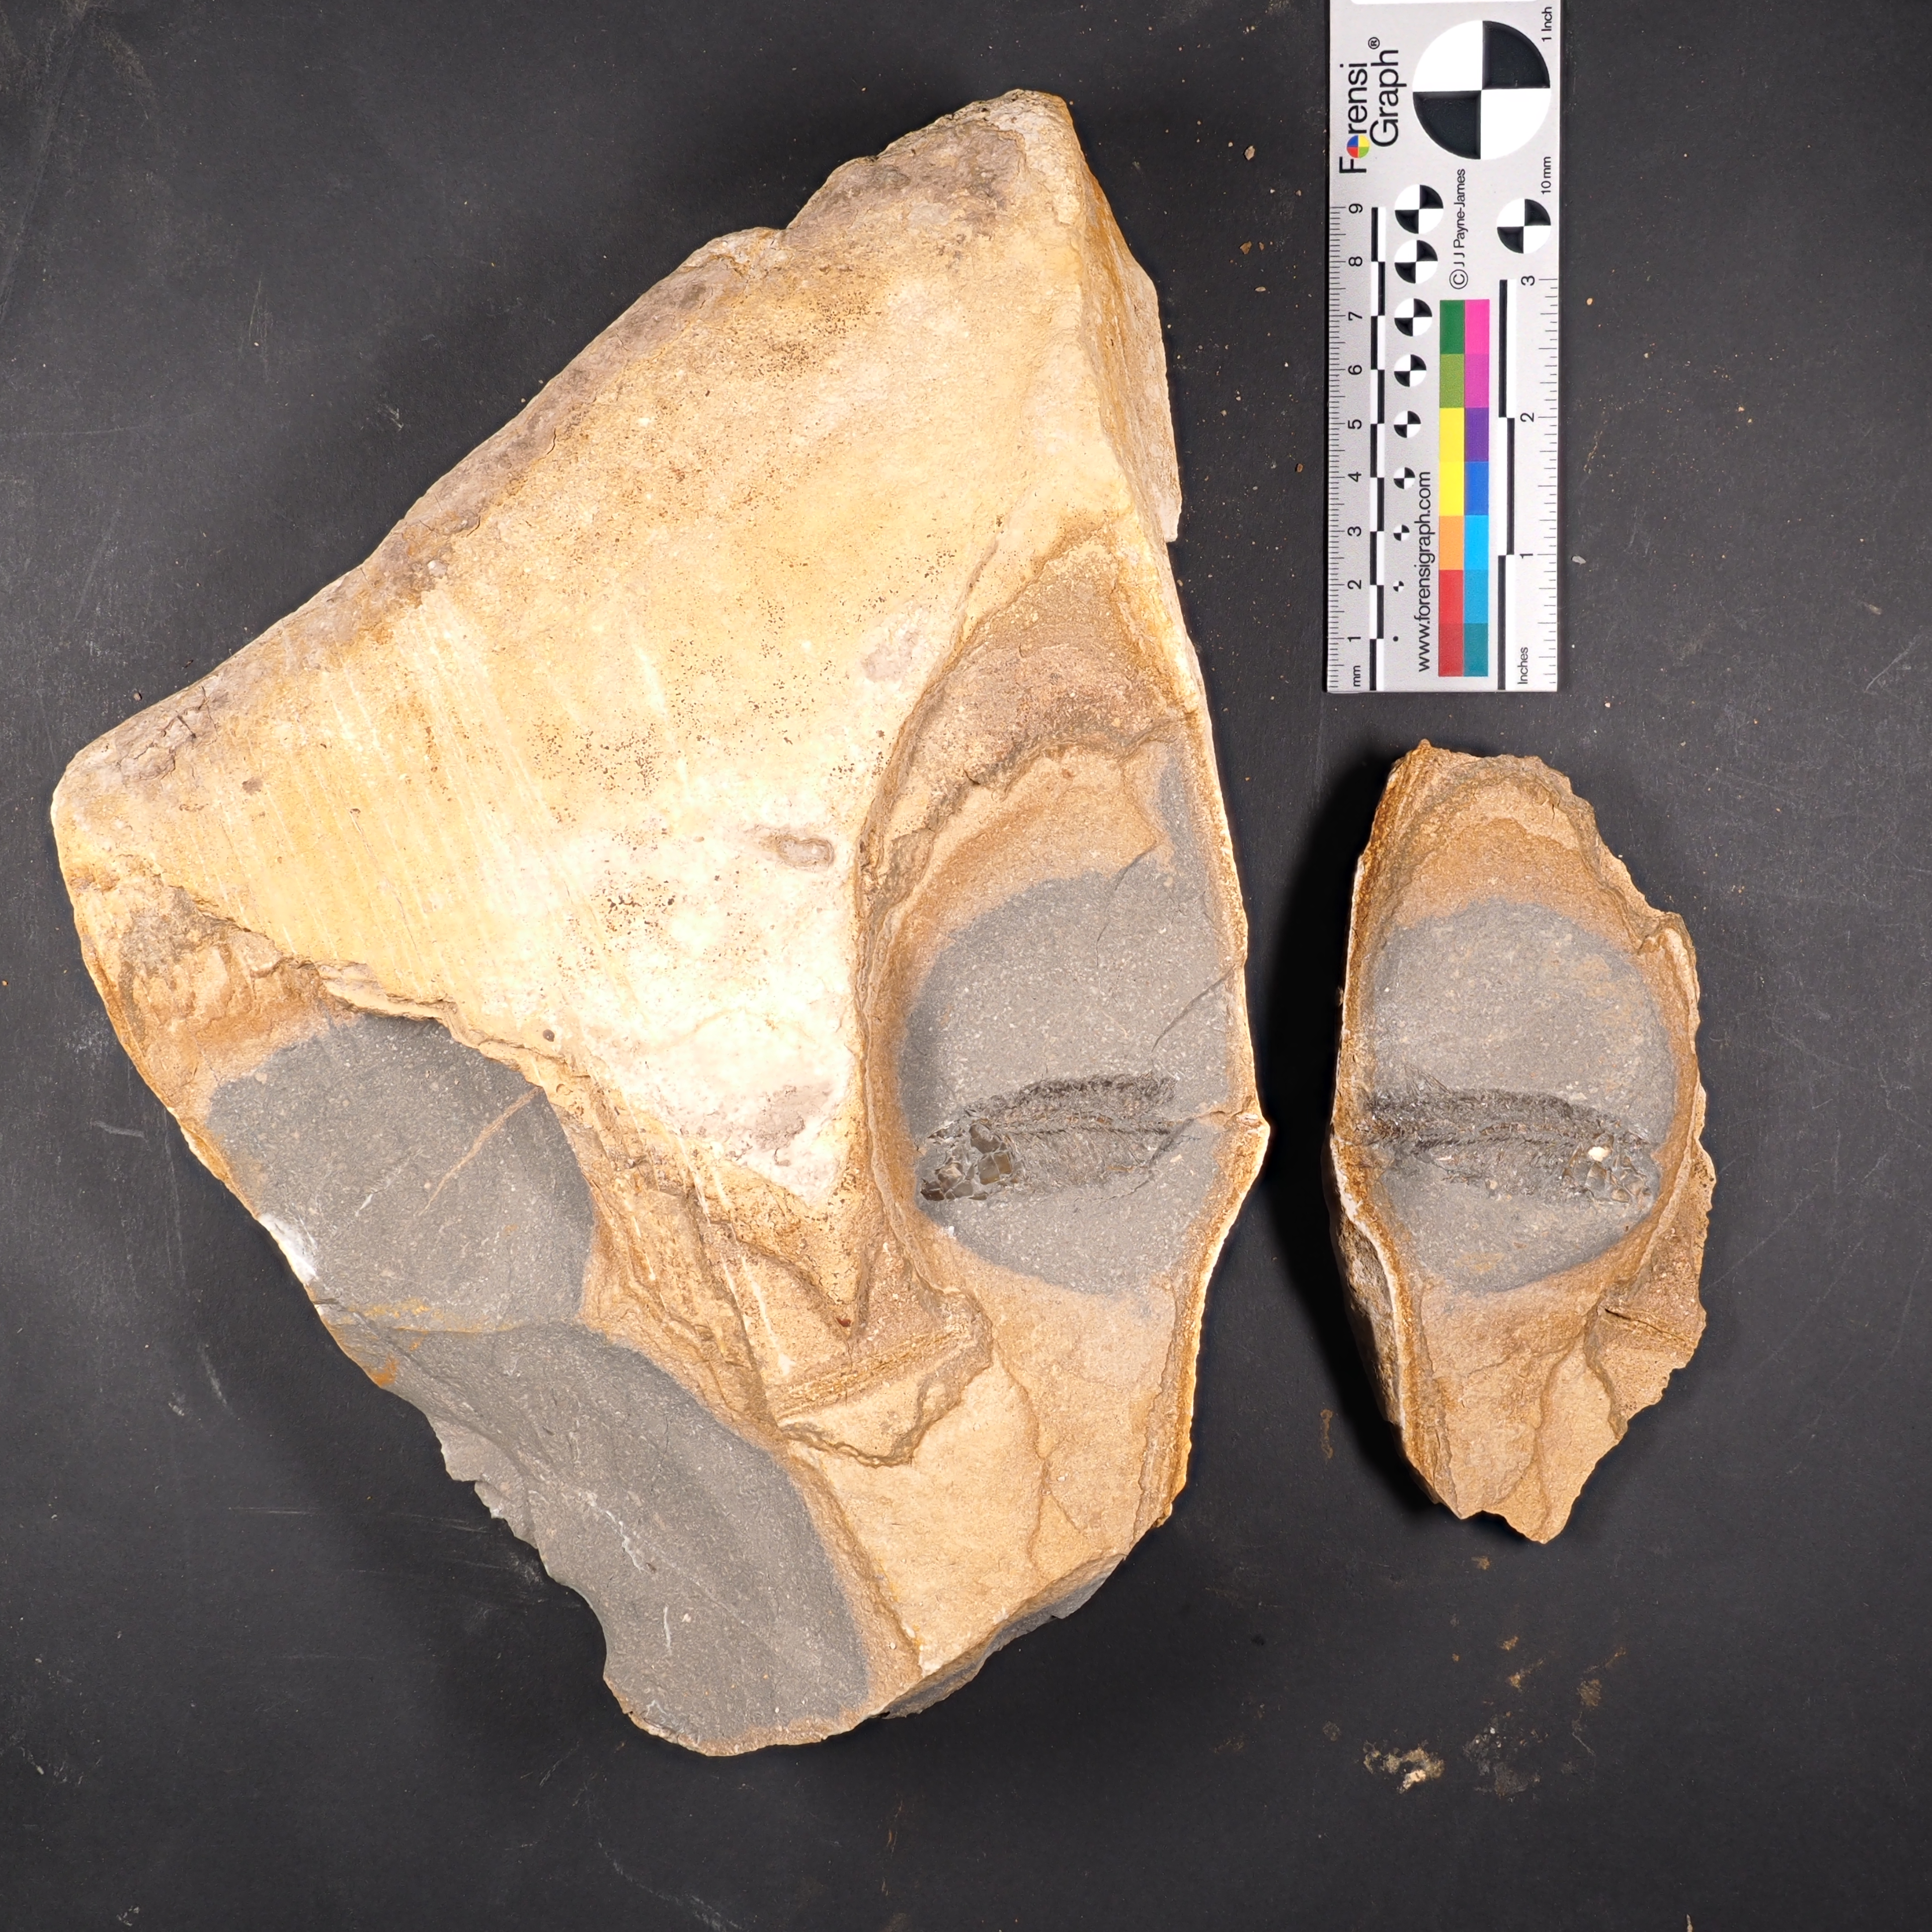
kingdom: Animalia
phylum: Chordata
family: Leptolepididae
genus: Leptolepis
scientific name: Leptolepis normandica
